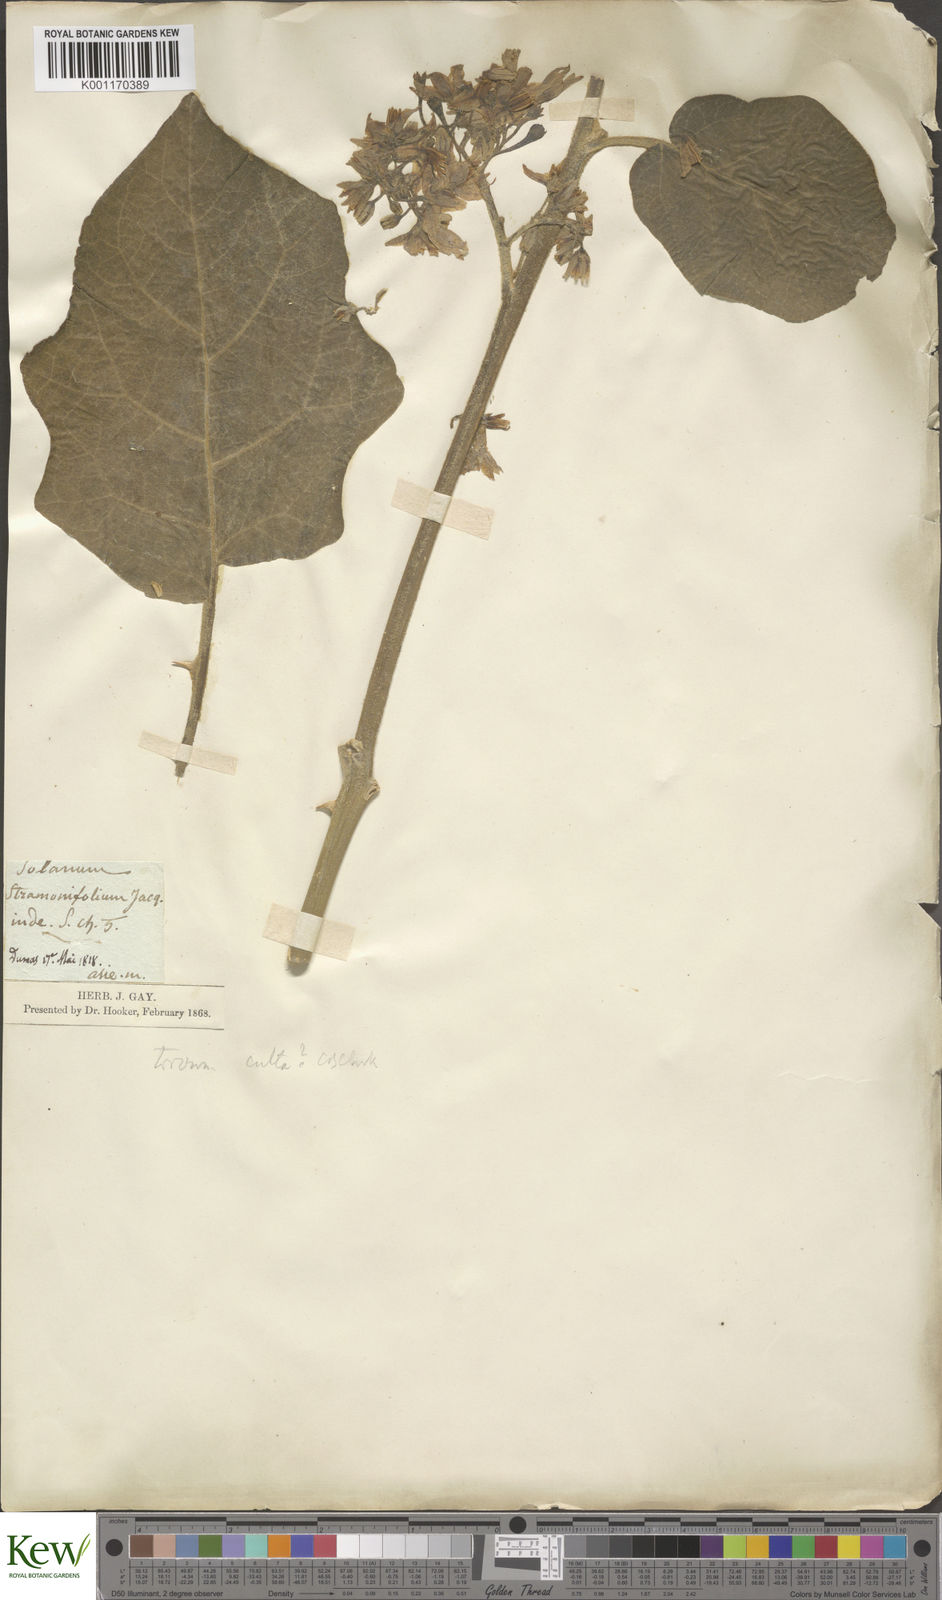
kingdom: Plantae
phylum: Tracheophyta
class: Magnoliopsida
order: Solanales
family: Solanaceae
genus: Solanum
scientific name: Solanum torvum
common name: Turkey berry
